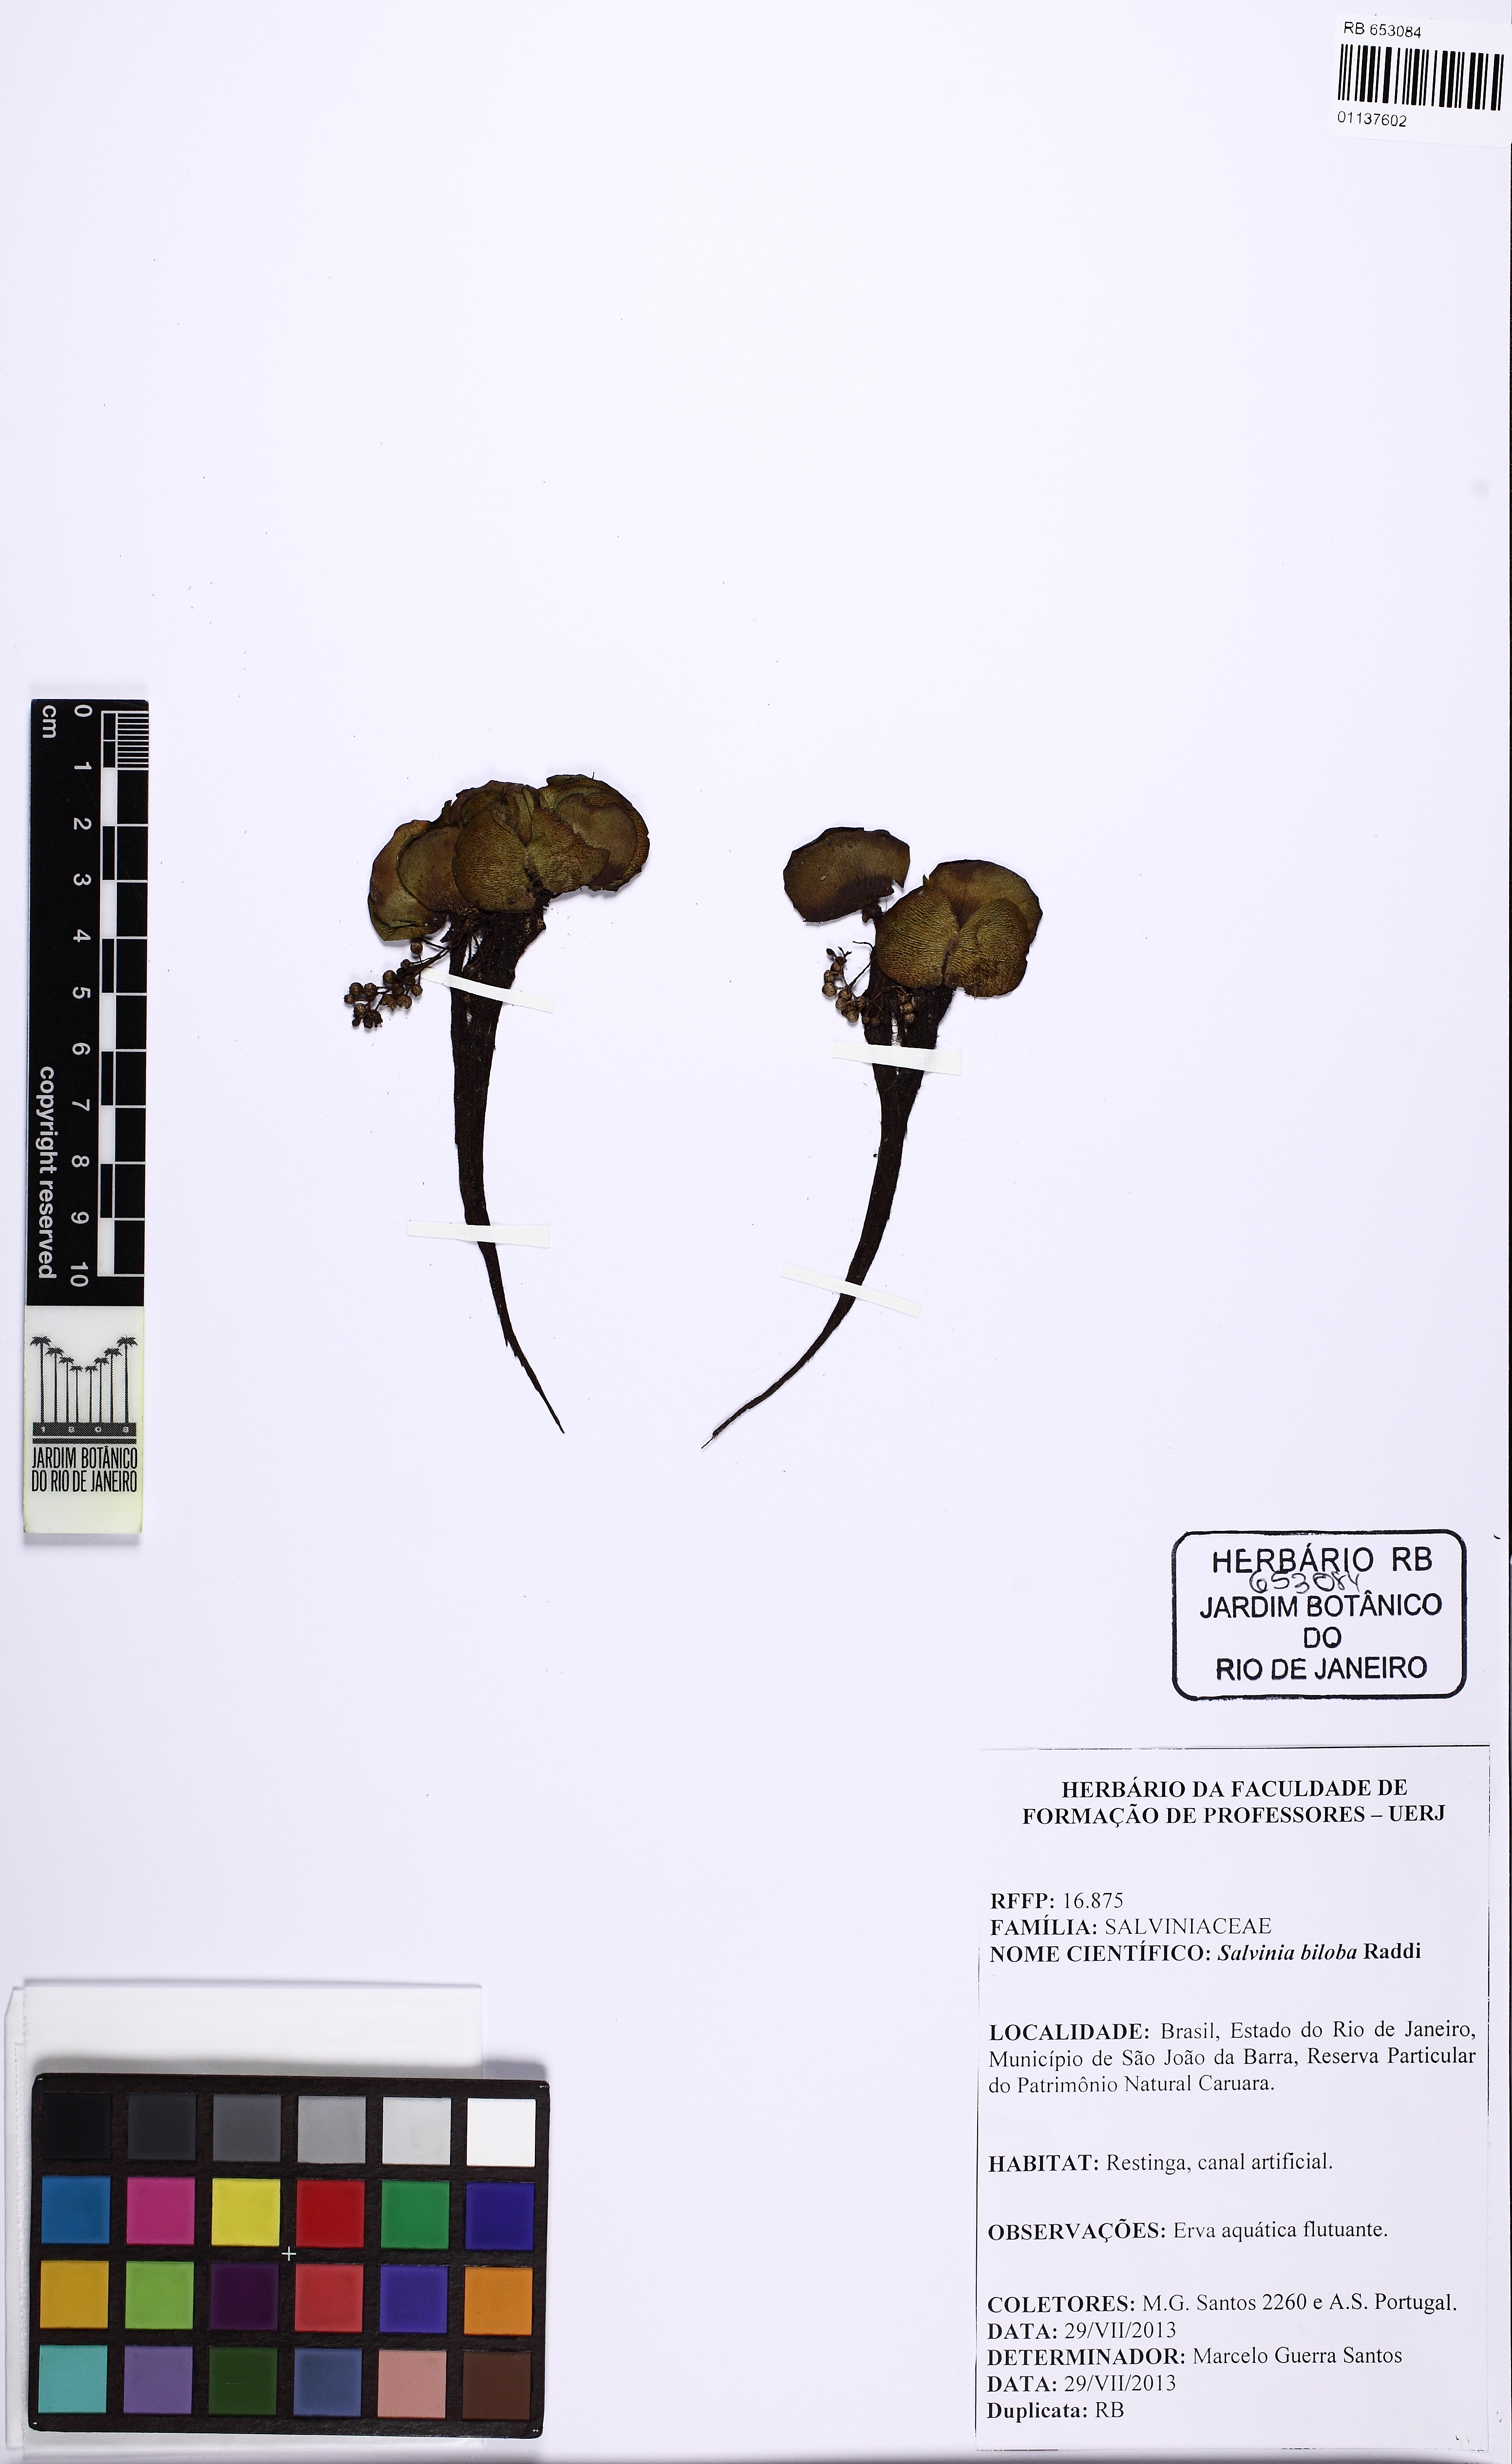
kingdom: Plantae
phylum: Tracheophyta
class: Polypodiopsida
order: Salviniales
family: Salviniaceae
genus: Salvinia
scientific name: Salvinia biloba
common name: Giant salvinia
